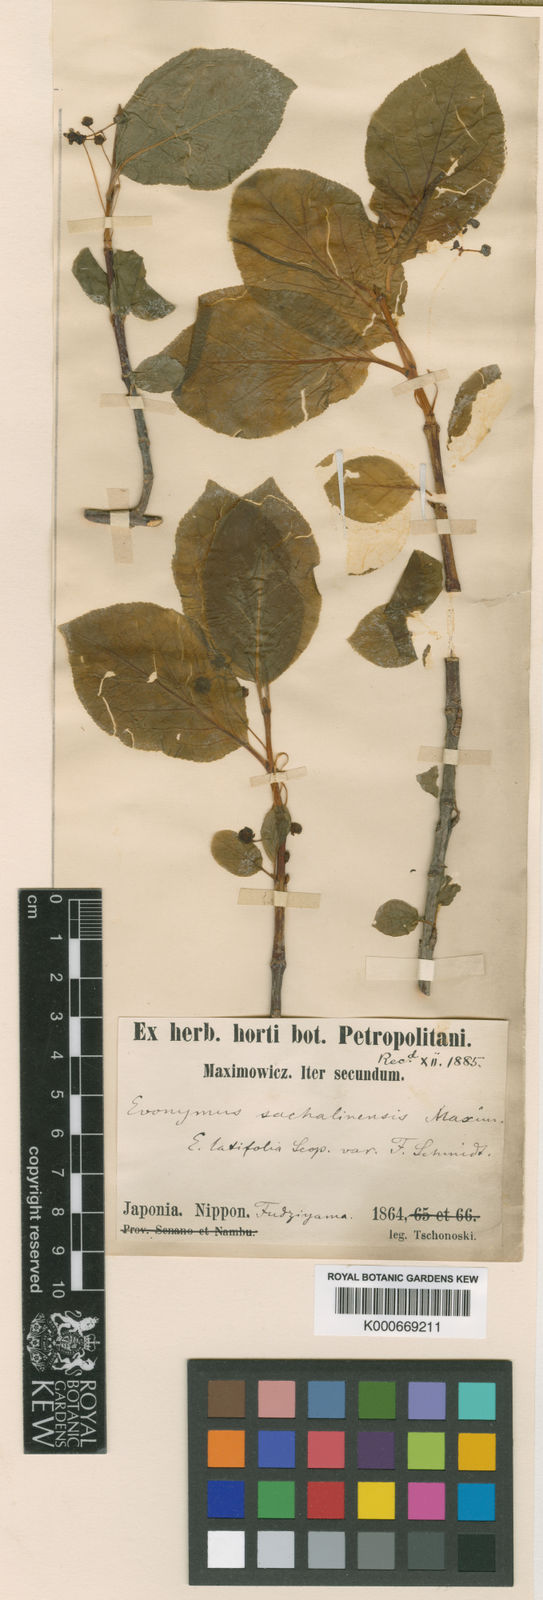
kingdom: Plantae
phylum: Tracheophyta
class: Magnoliopsida
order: Celastrales
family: Celastraceae
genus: Euonymus
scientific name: Euonymus sachalinensis
